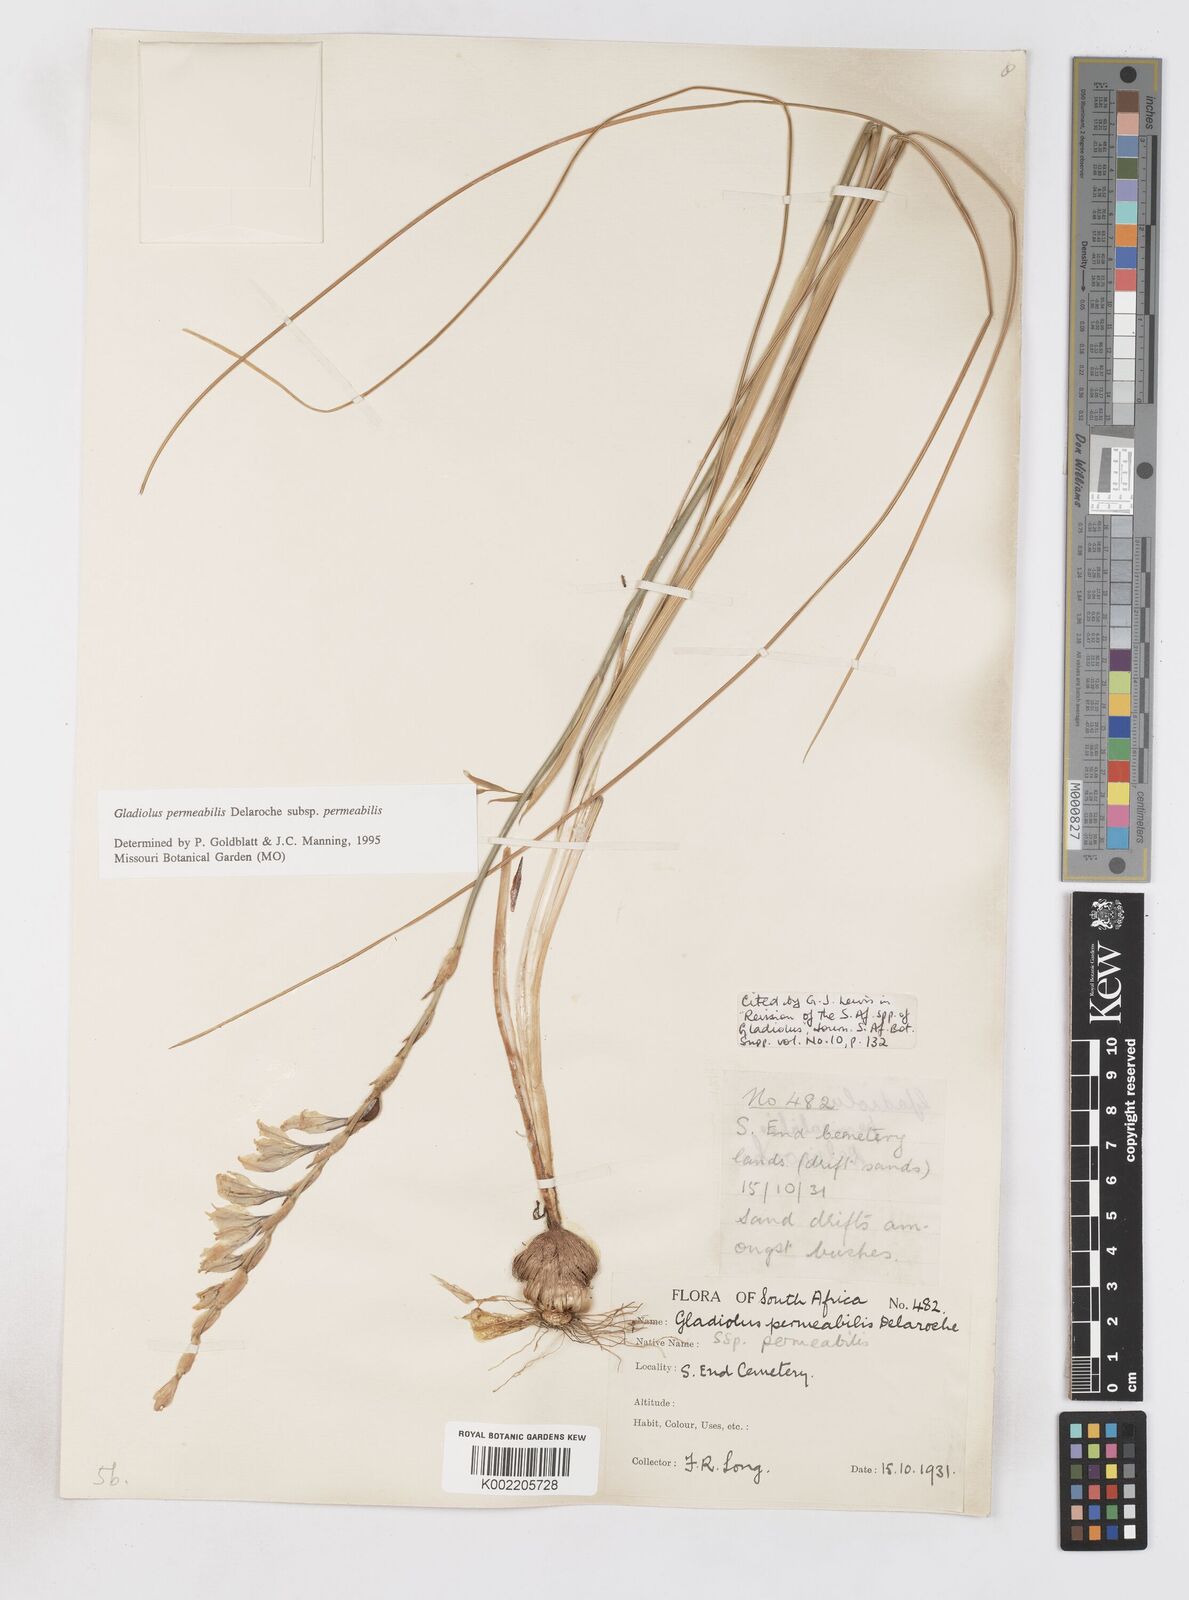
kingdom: Plantae
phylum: Tracheophyta
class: Liliopsida
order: Asparagales
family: Iridaceae
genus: Gladiolus
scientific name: Gladiolus permeabilis
